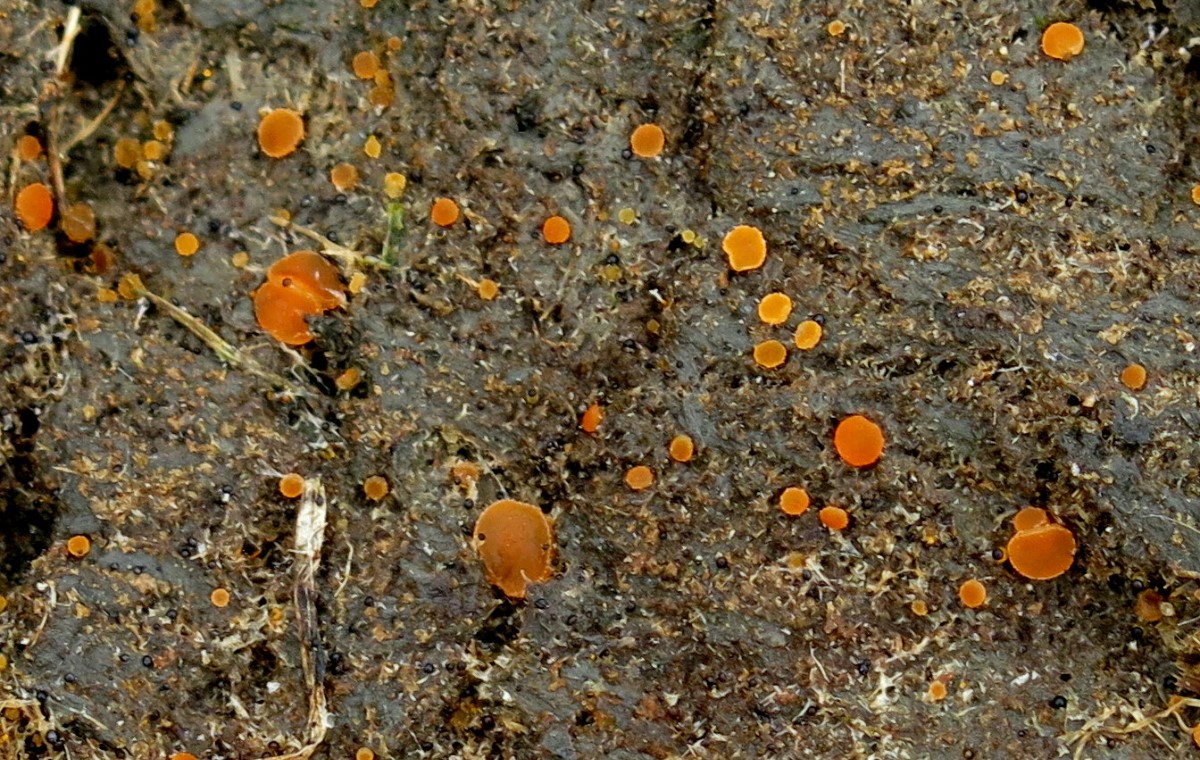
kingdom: Fungi
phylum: Ascomycota
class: Pezizomycetes
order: Pezizales
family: Pyronemataceae
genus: Cheilymenia
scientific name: Cheilymenia
